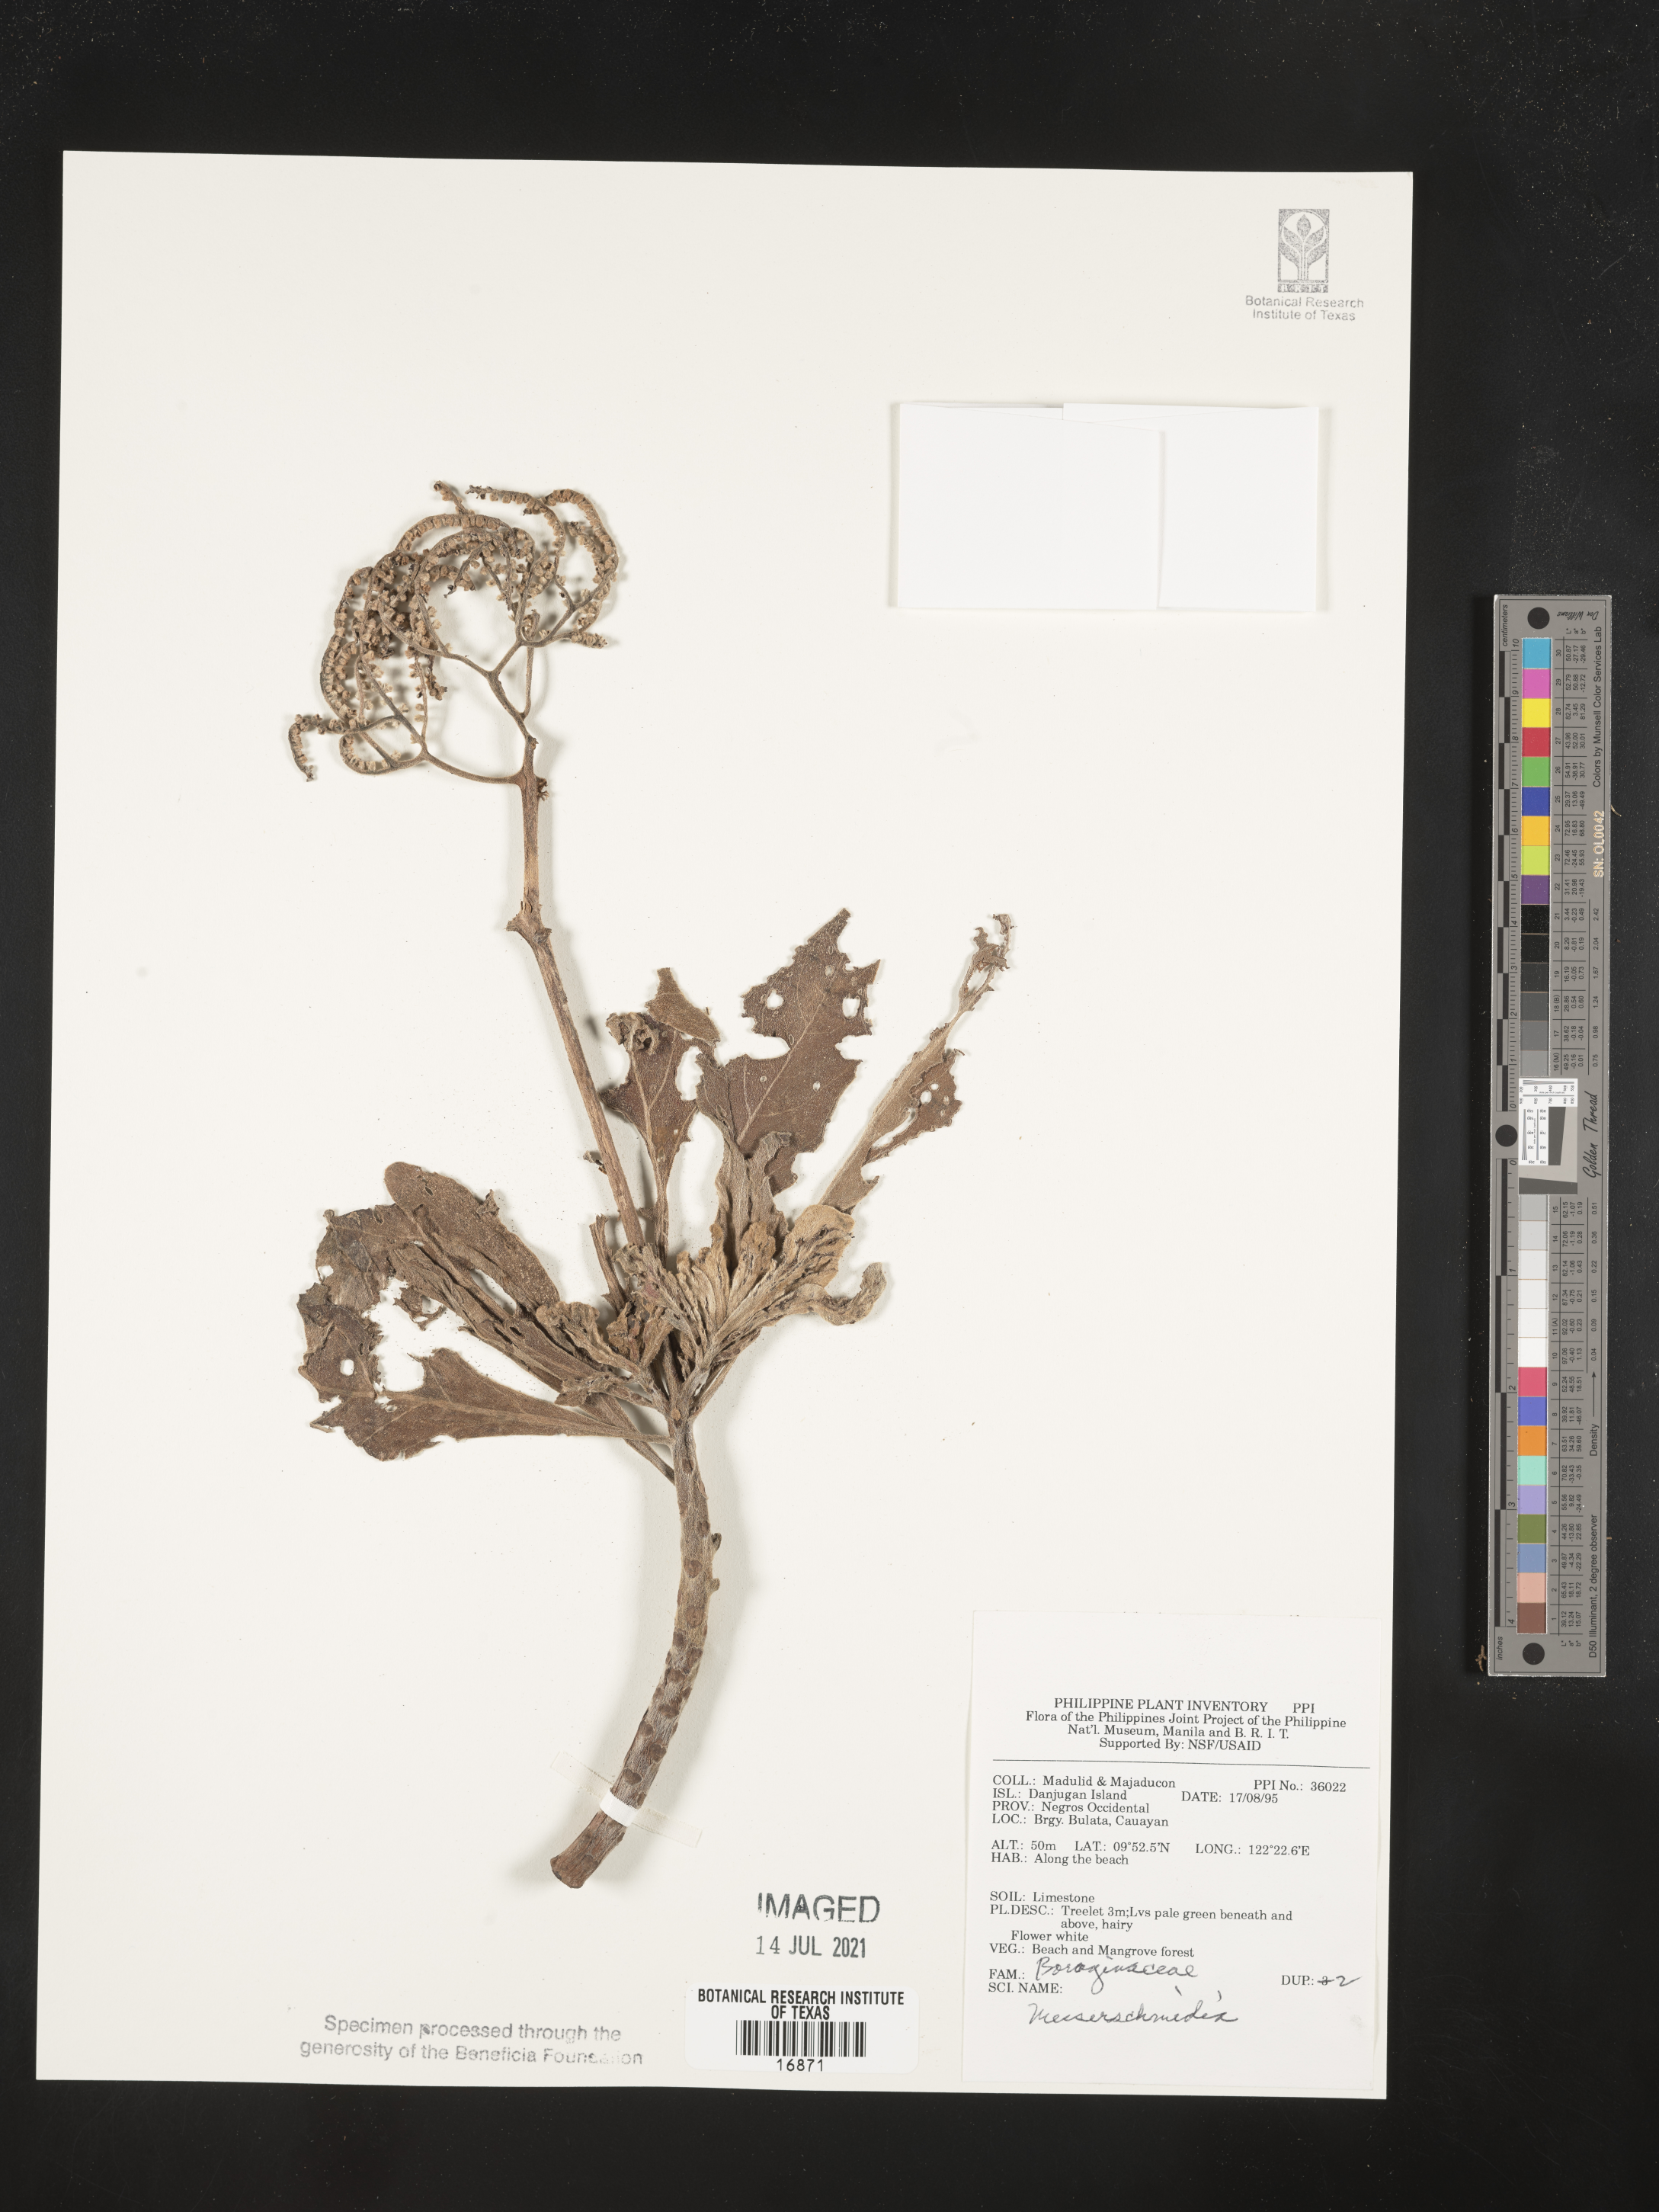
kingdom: Plantae
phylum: Tracheophyta
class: Magnoliopsida
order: Boraginales
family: Boraginaceae
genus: Messerschmidia
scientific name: Messerschmidia
